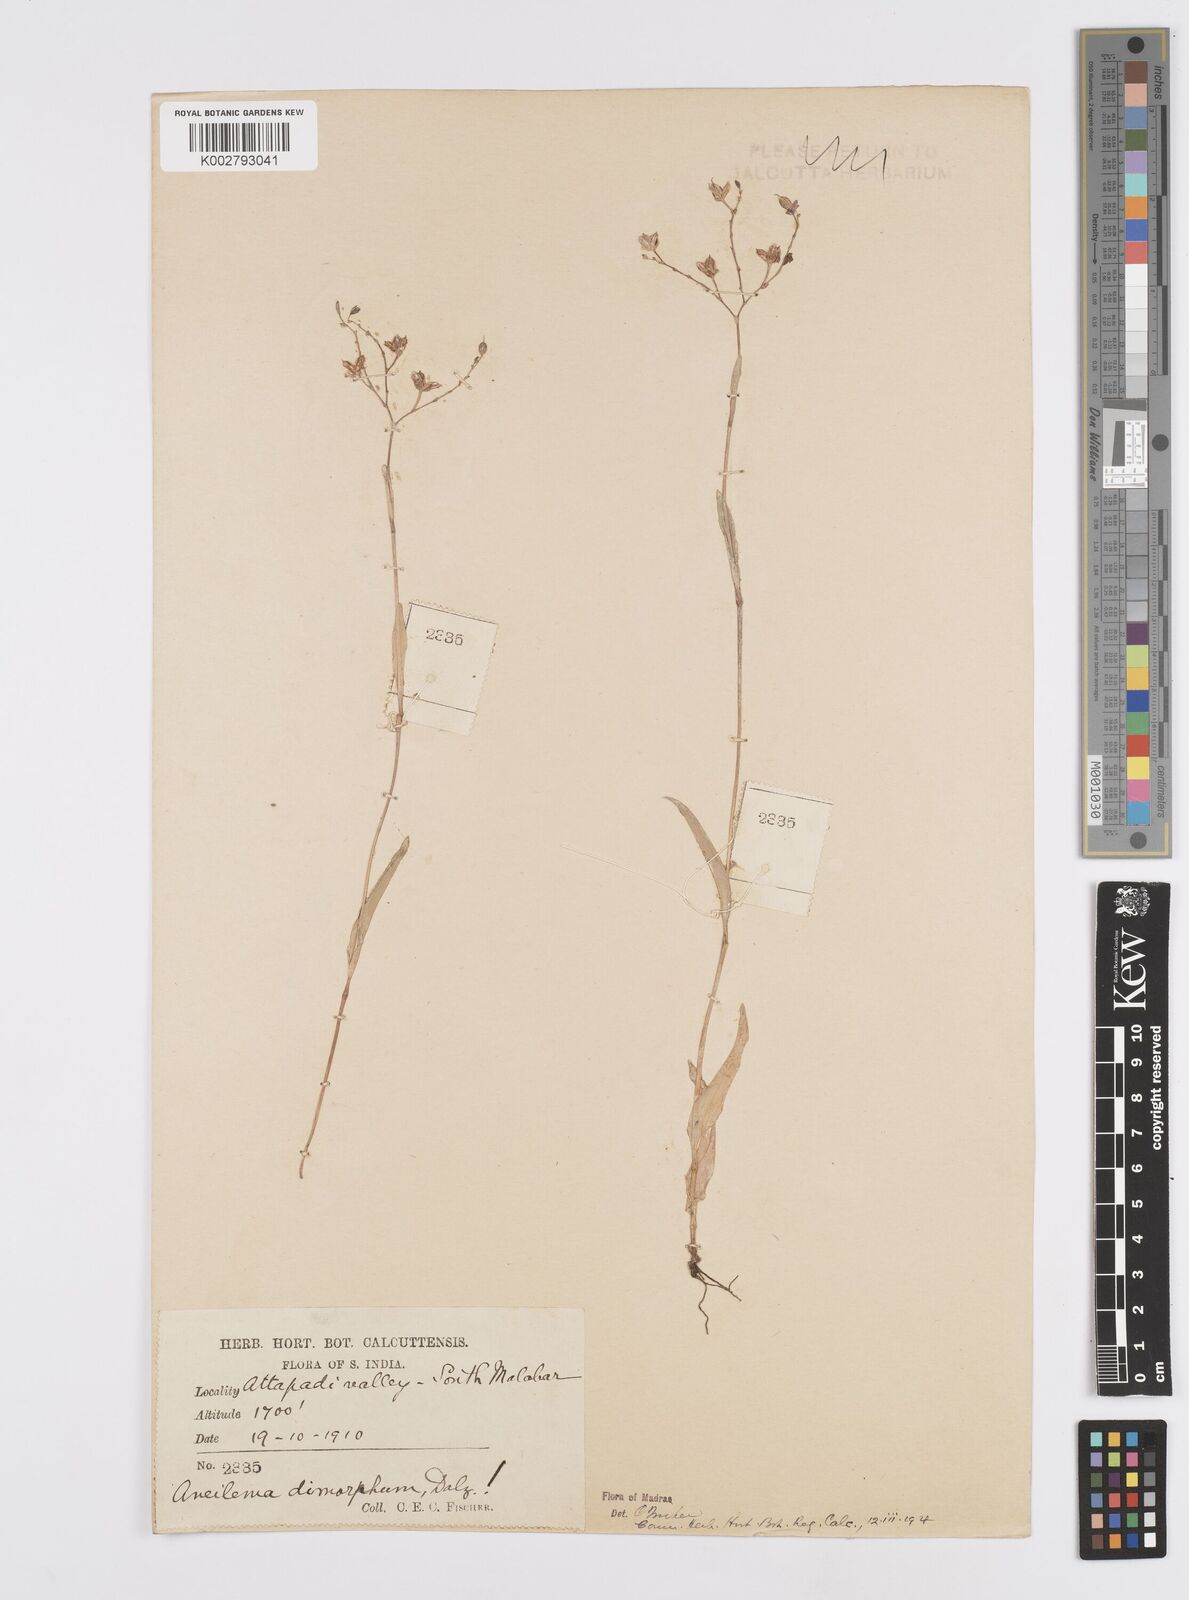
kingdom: Plantae
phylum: Tracheophyta
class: Liliopsida
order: Commelinales
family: Commelinaceae
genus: Murdannia
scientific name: Murdannia dimorpha
